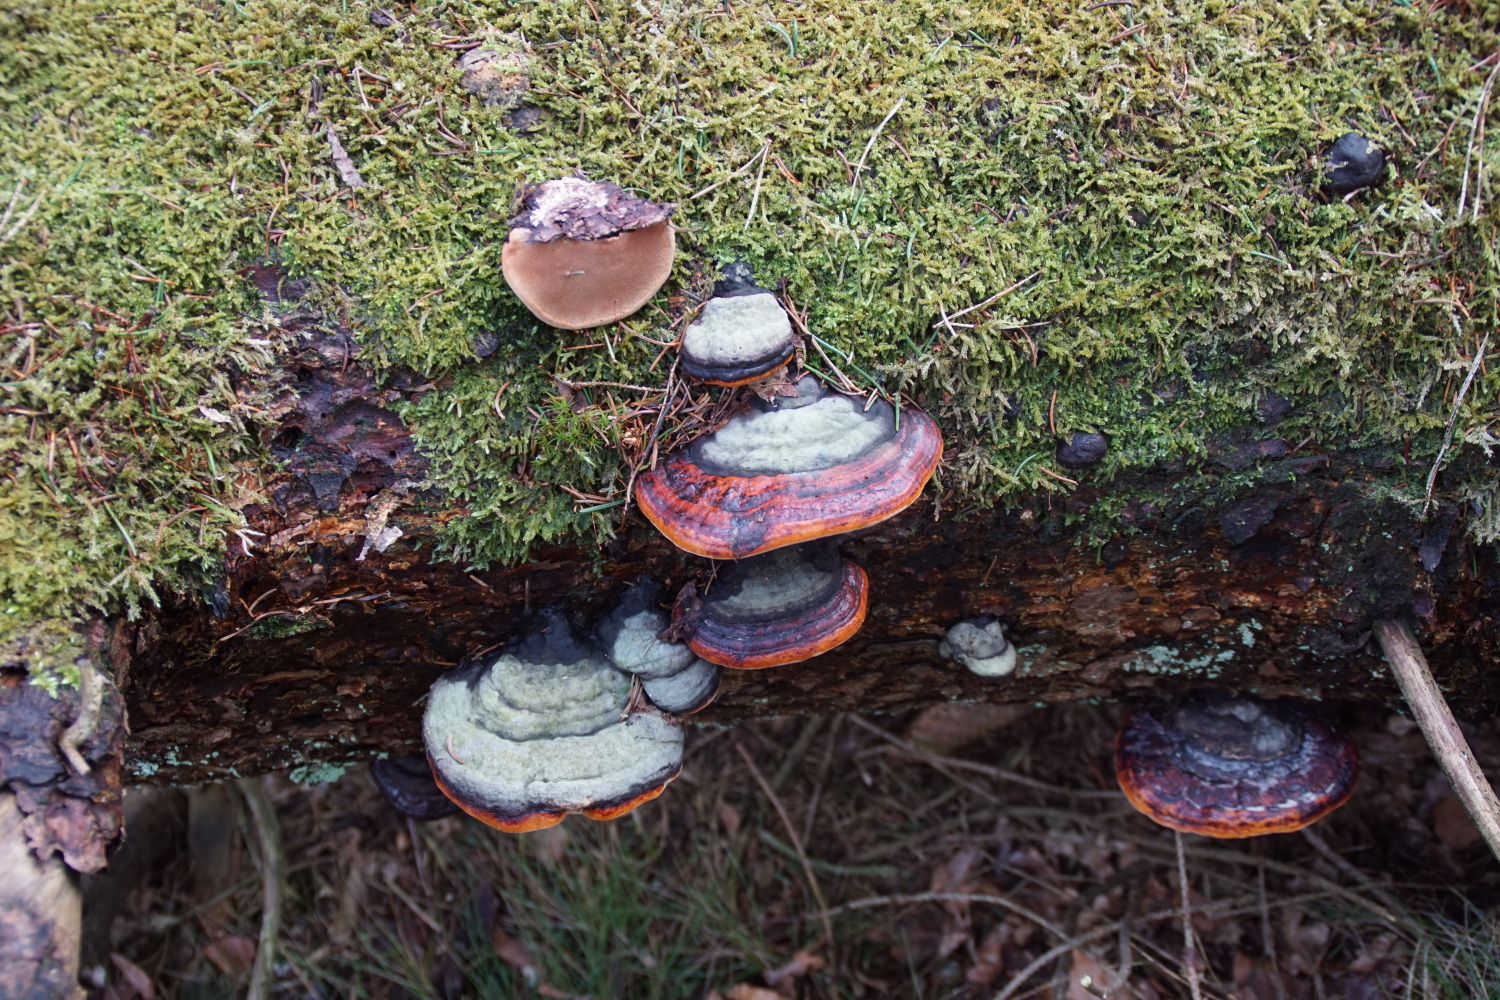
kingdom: Fungi
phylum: Basidiomycota
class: Agaricomycetes
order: Polyporales
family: Fomitopsidaceae
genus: Fomitopsis
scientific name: Fomitopsis pinicola
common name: randbæltet hovporesvamp
